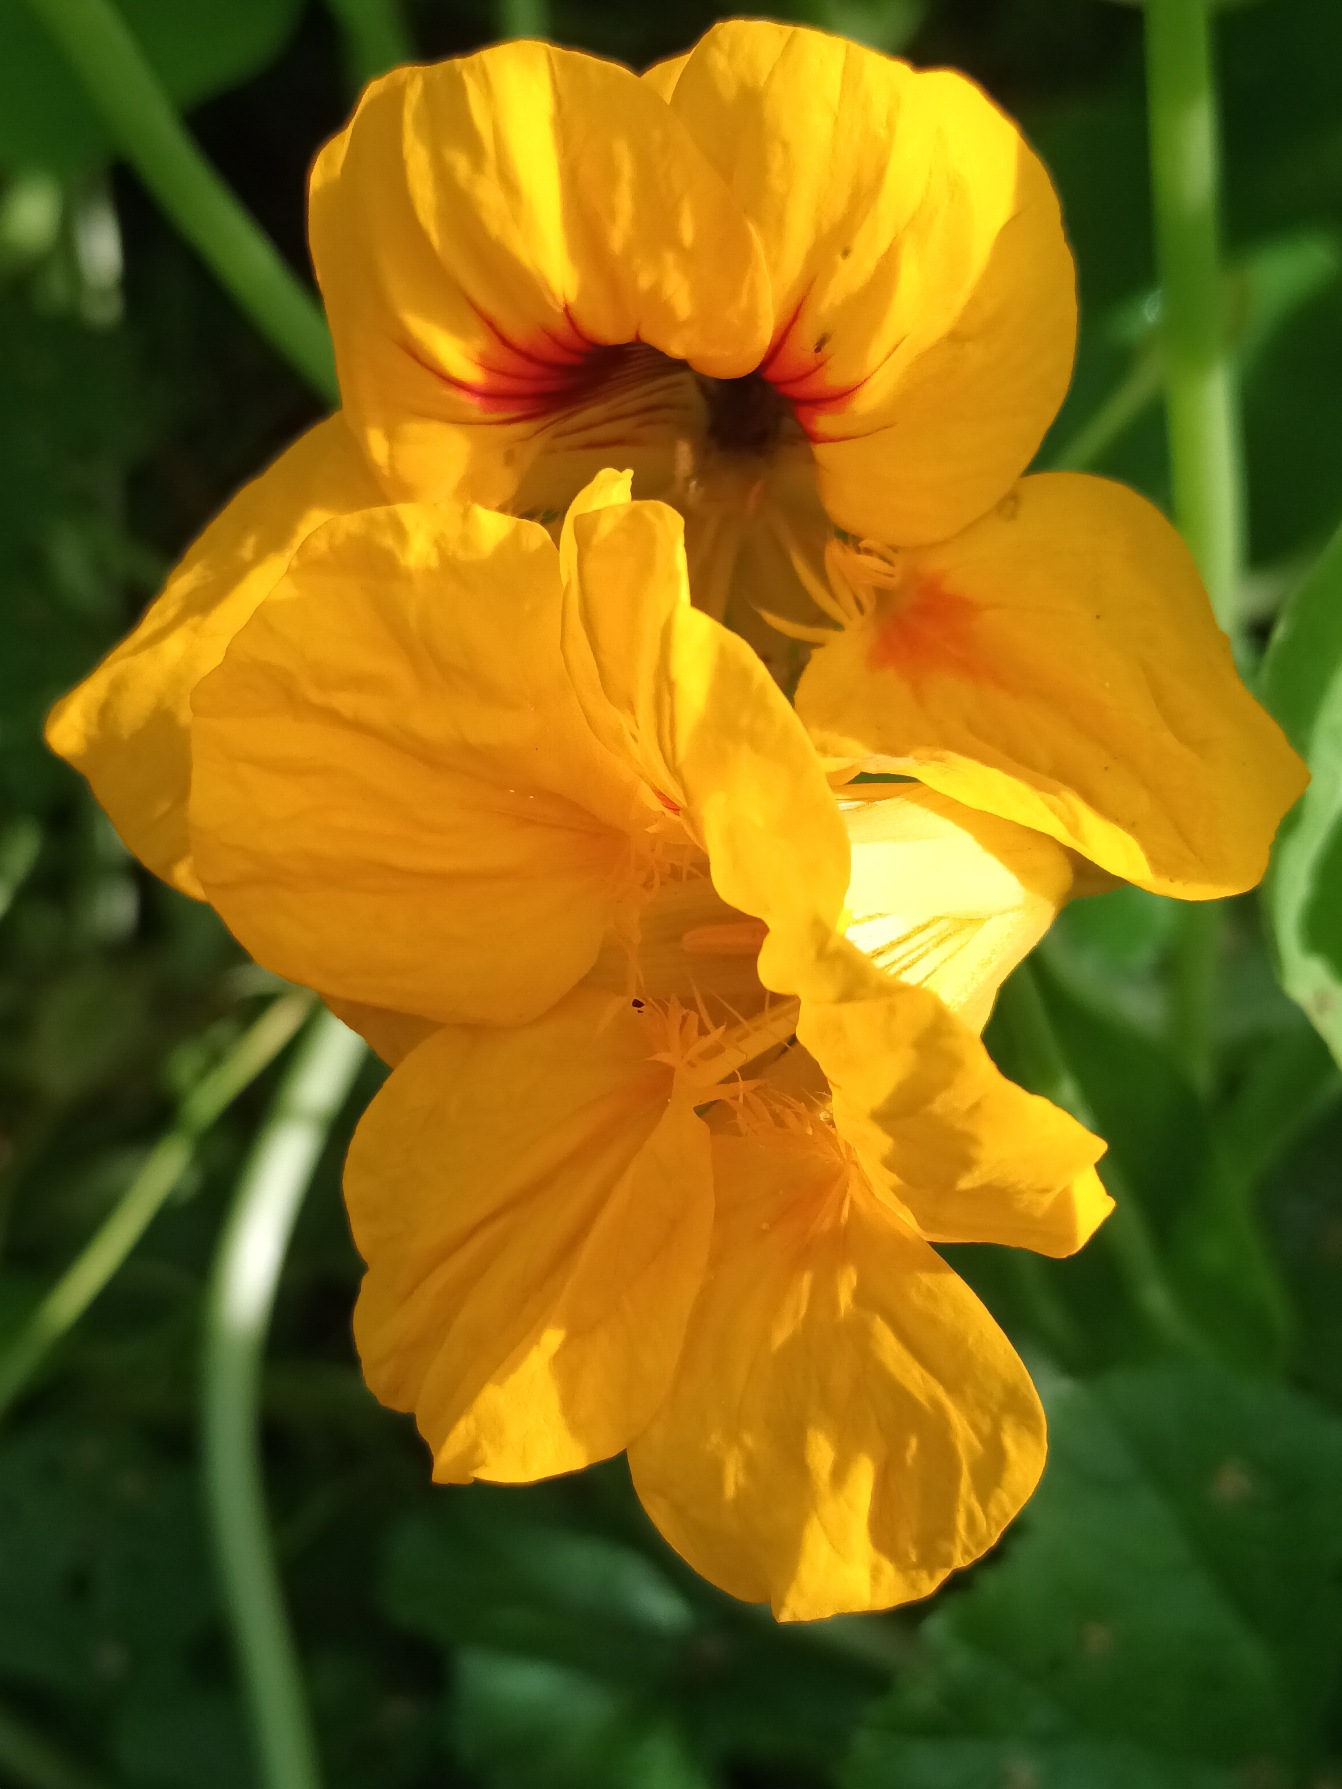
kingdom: Plantae
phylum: Tracheophyta
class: Magnoliopsida
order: Brassicales
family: Tropaeolaceae
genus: Tropaeolum
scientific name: Tropaeolum majus
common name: Blomsterkarse
